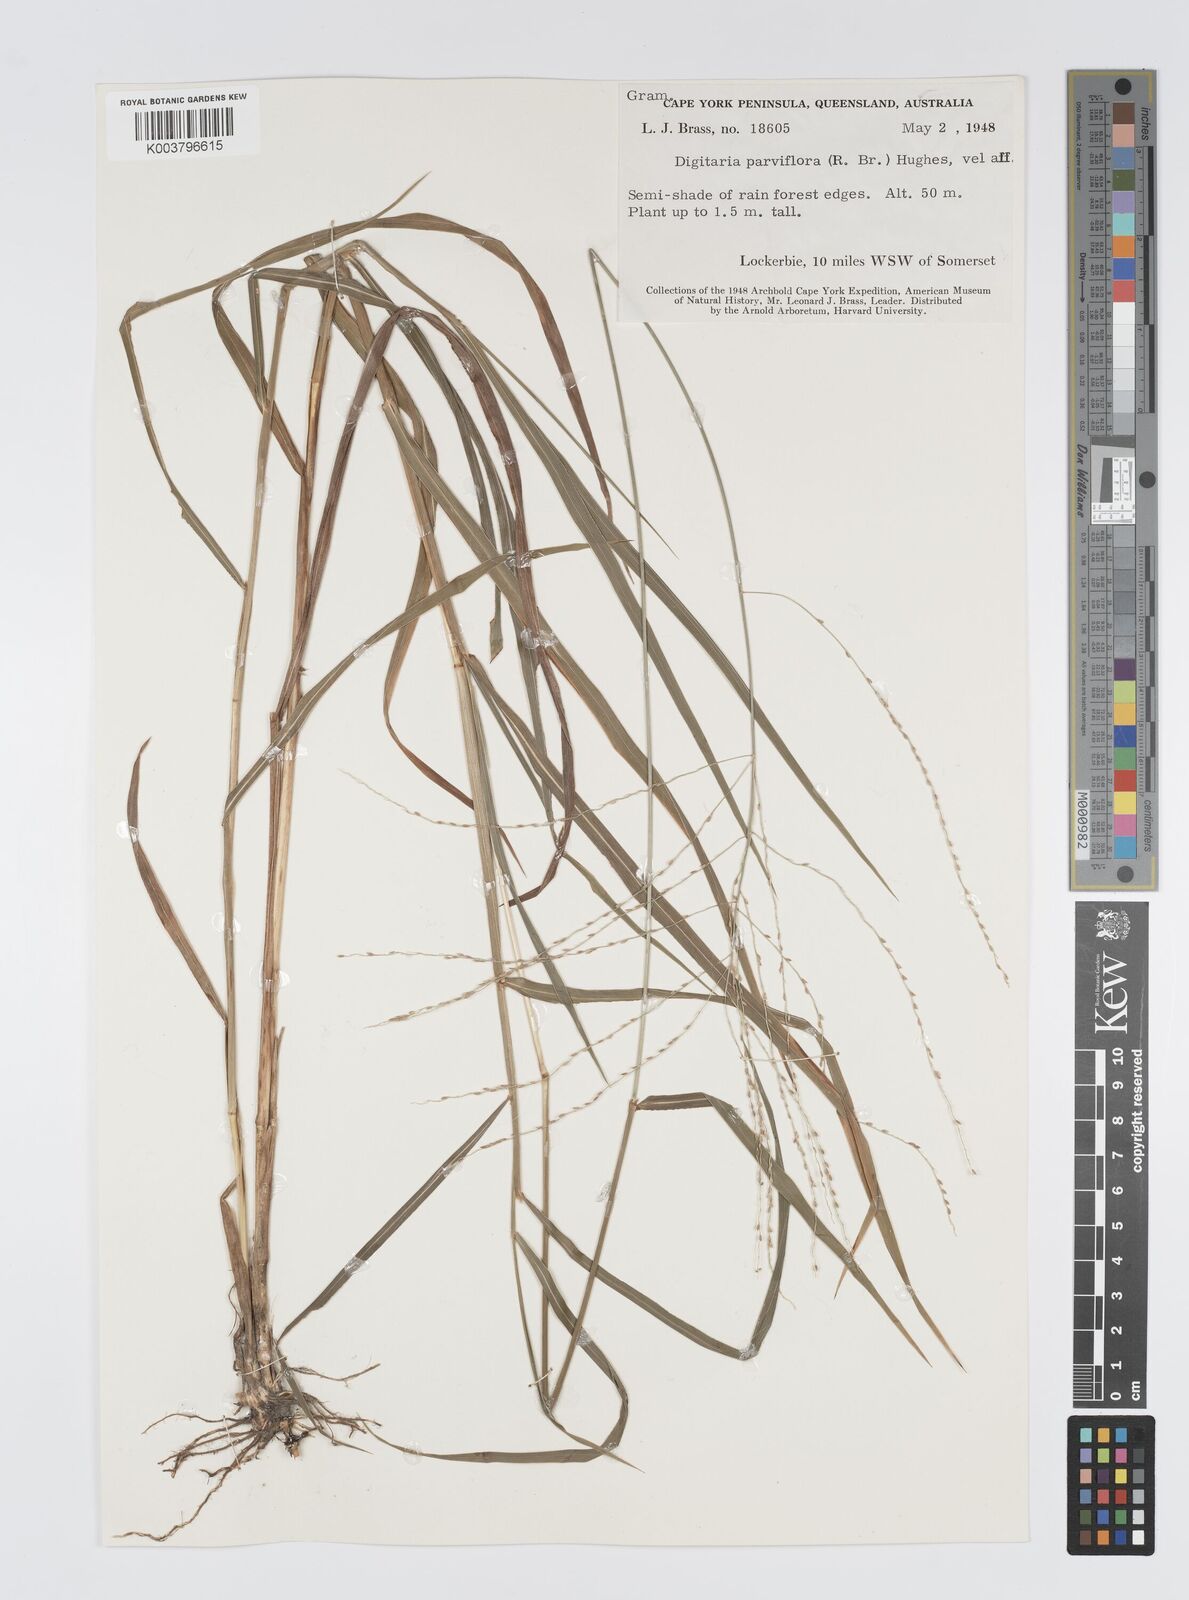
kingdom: Plantae
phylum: Tracheophyta
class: Liliopsida
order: Poales
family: Poaceae
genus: Digitaria
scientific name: Digitaria parviflora
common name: Small-flower finger grass
